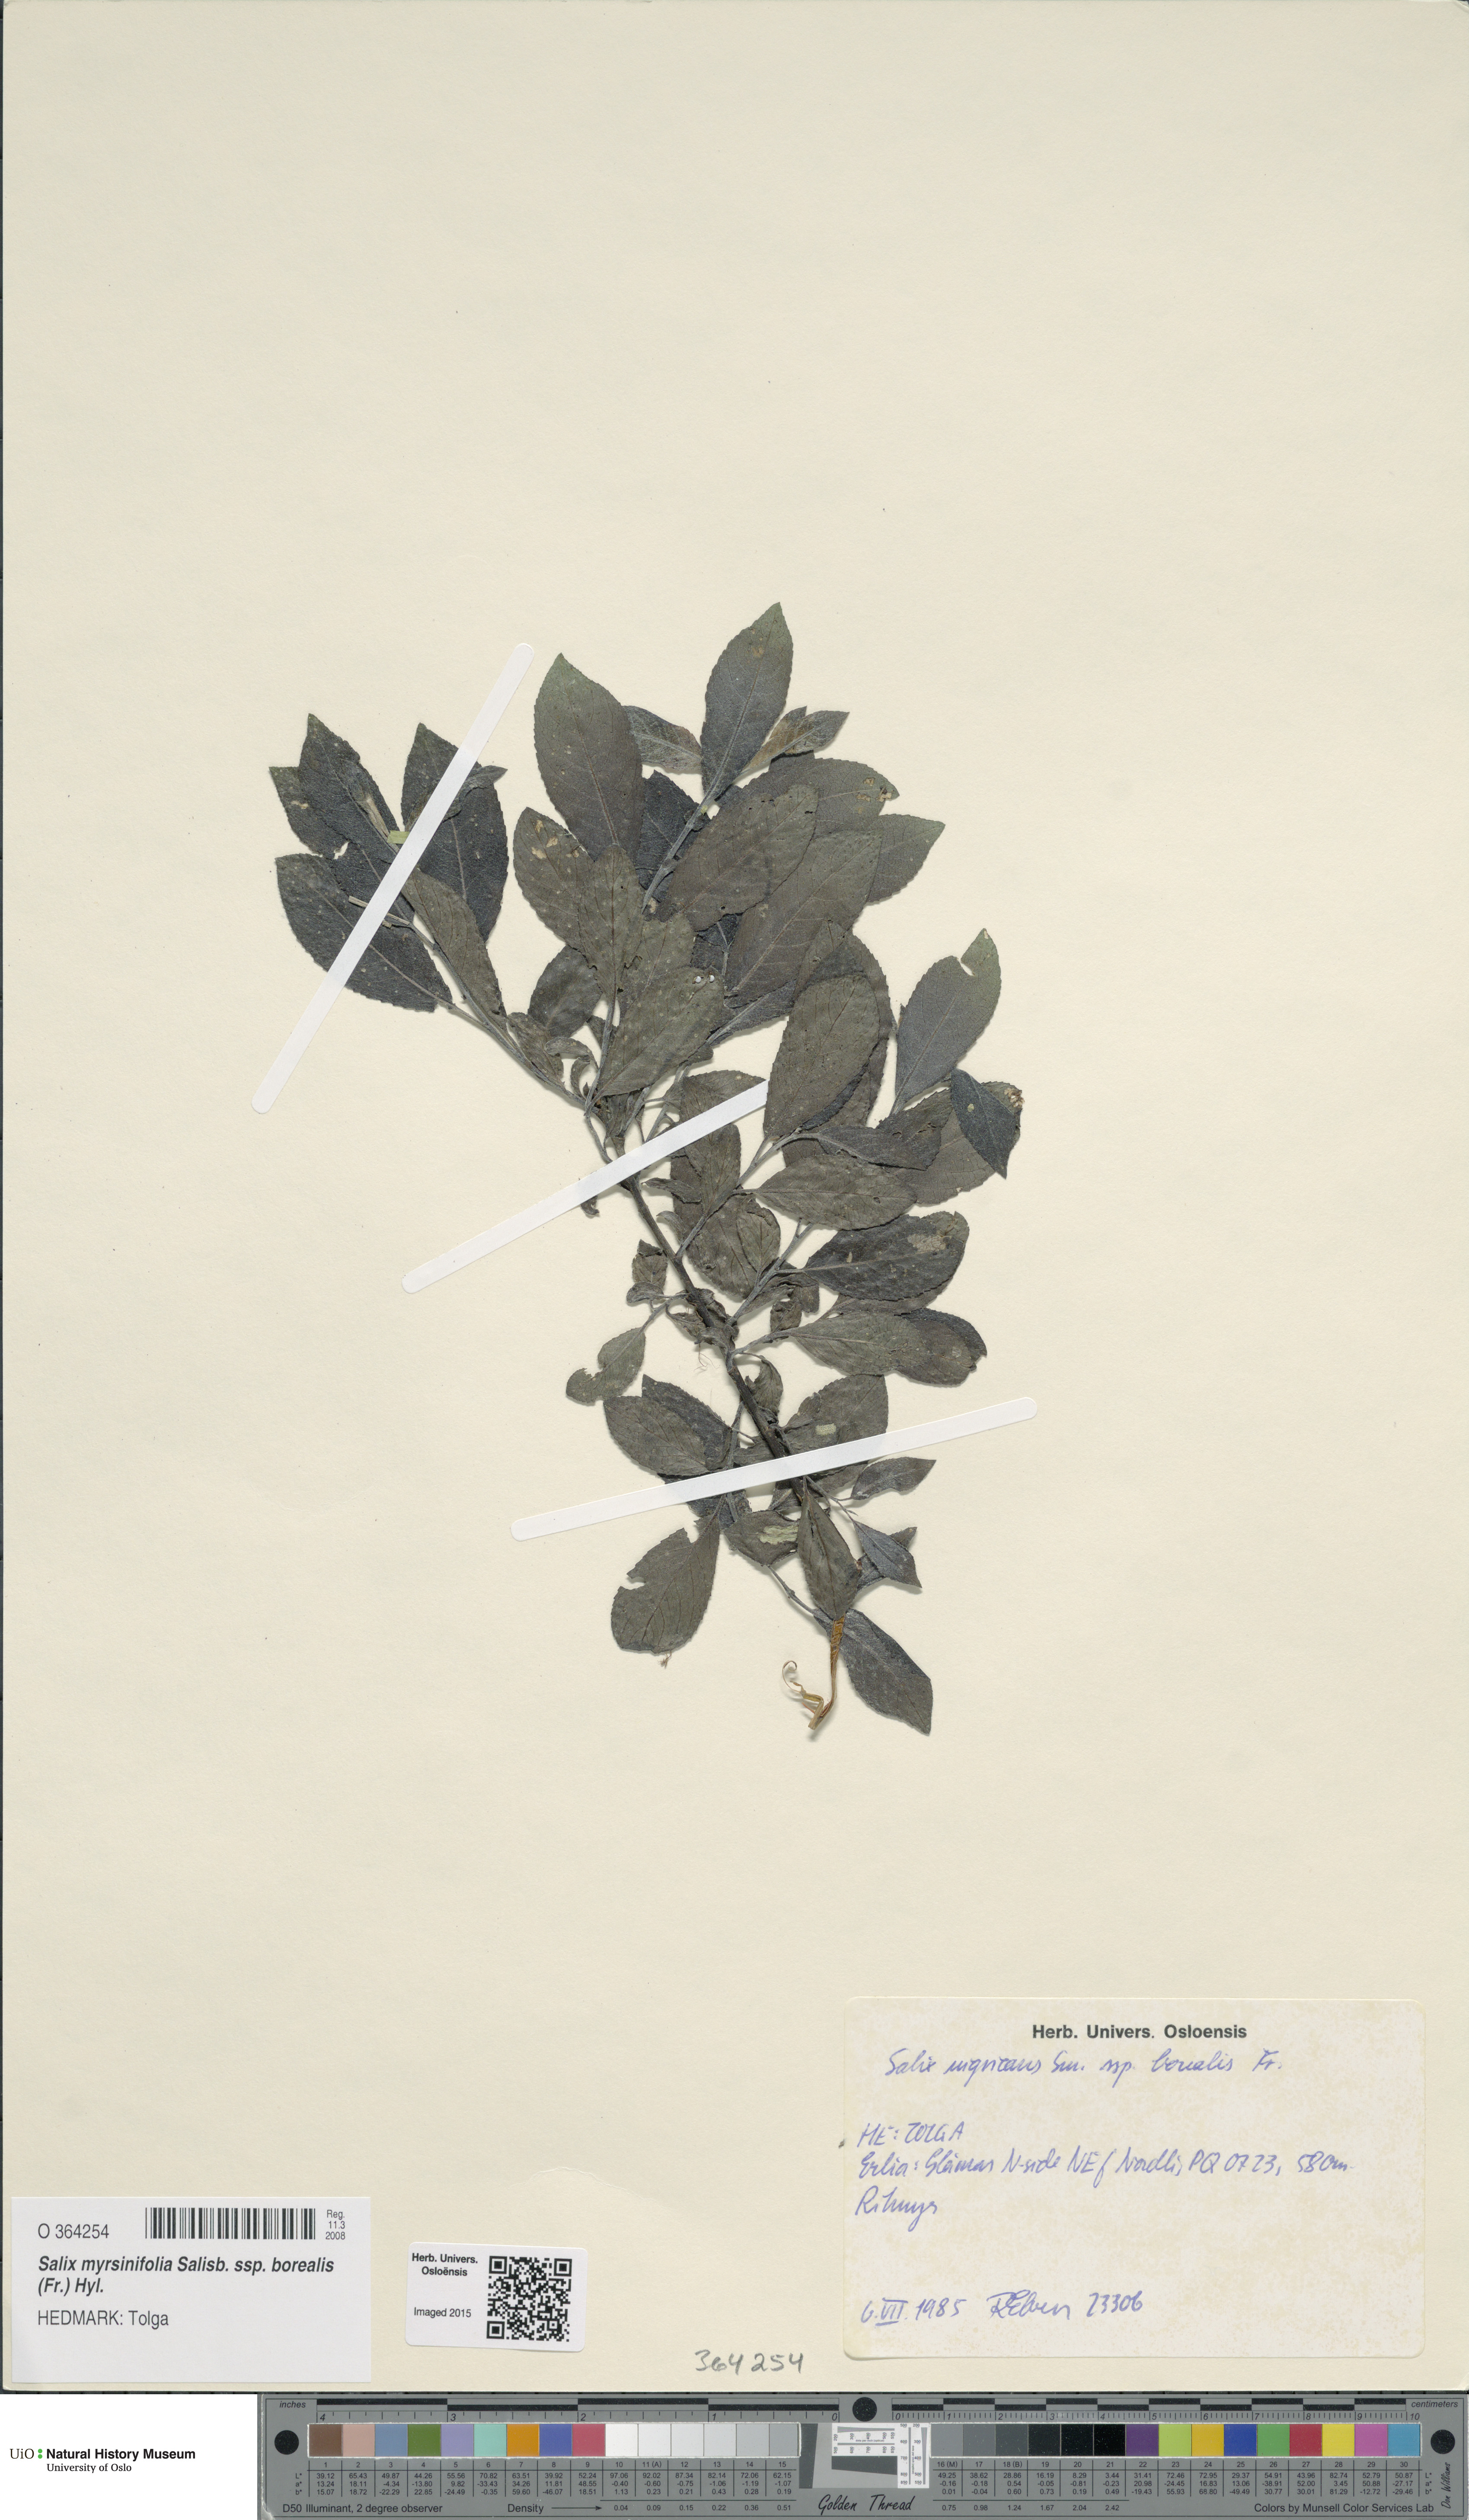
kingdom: Plantae
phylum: Tracheophyta
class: Magnoliopsida
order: Malpighiales
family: Salicaceae
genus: Salix
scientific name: Salix myrsinifolia
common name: Dark-leaved willow
